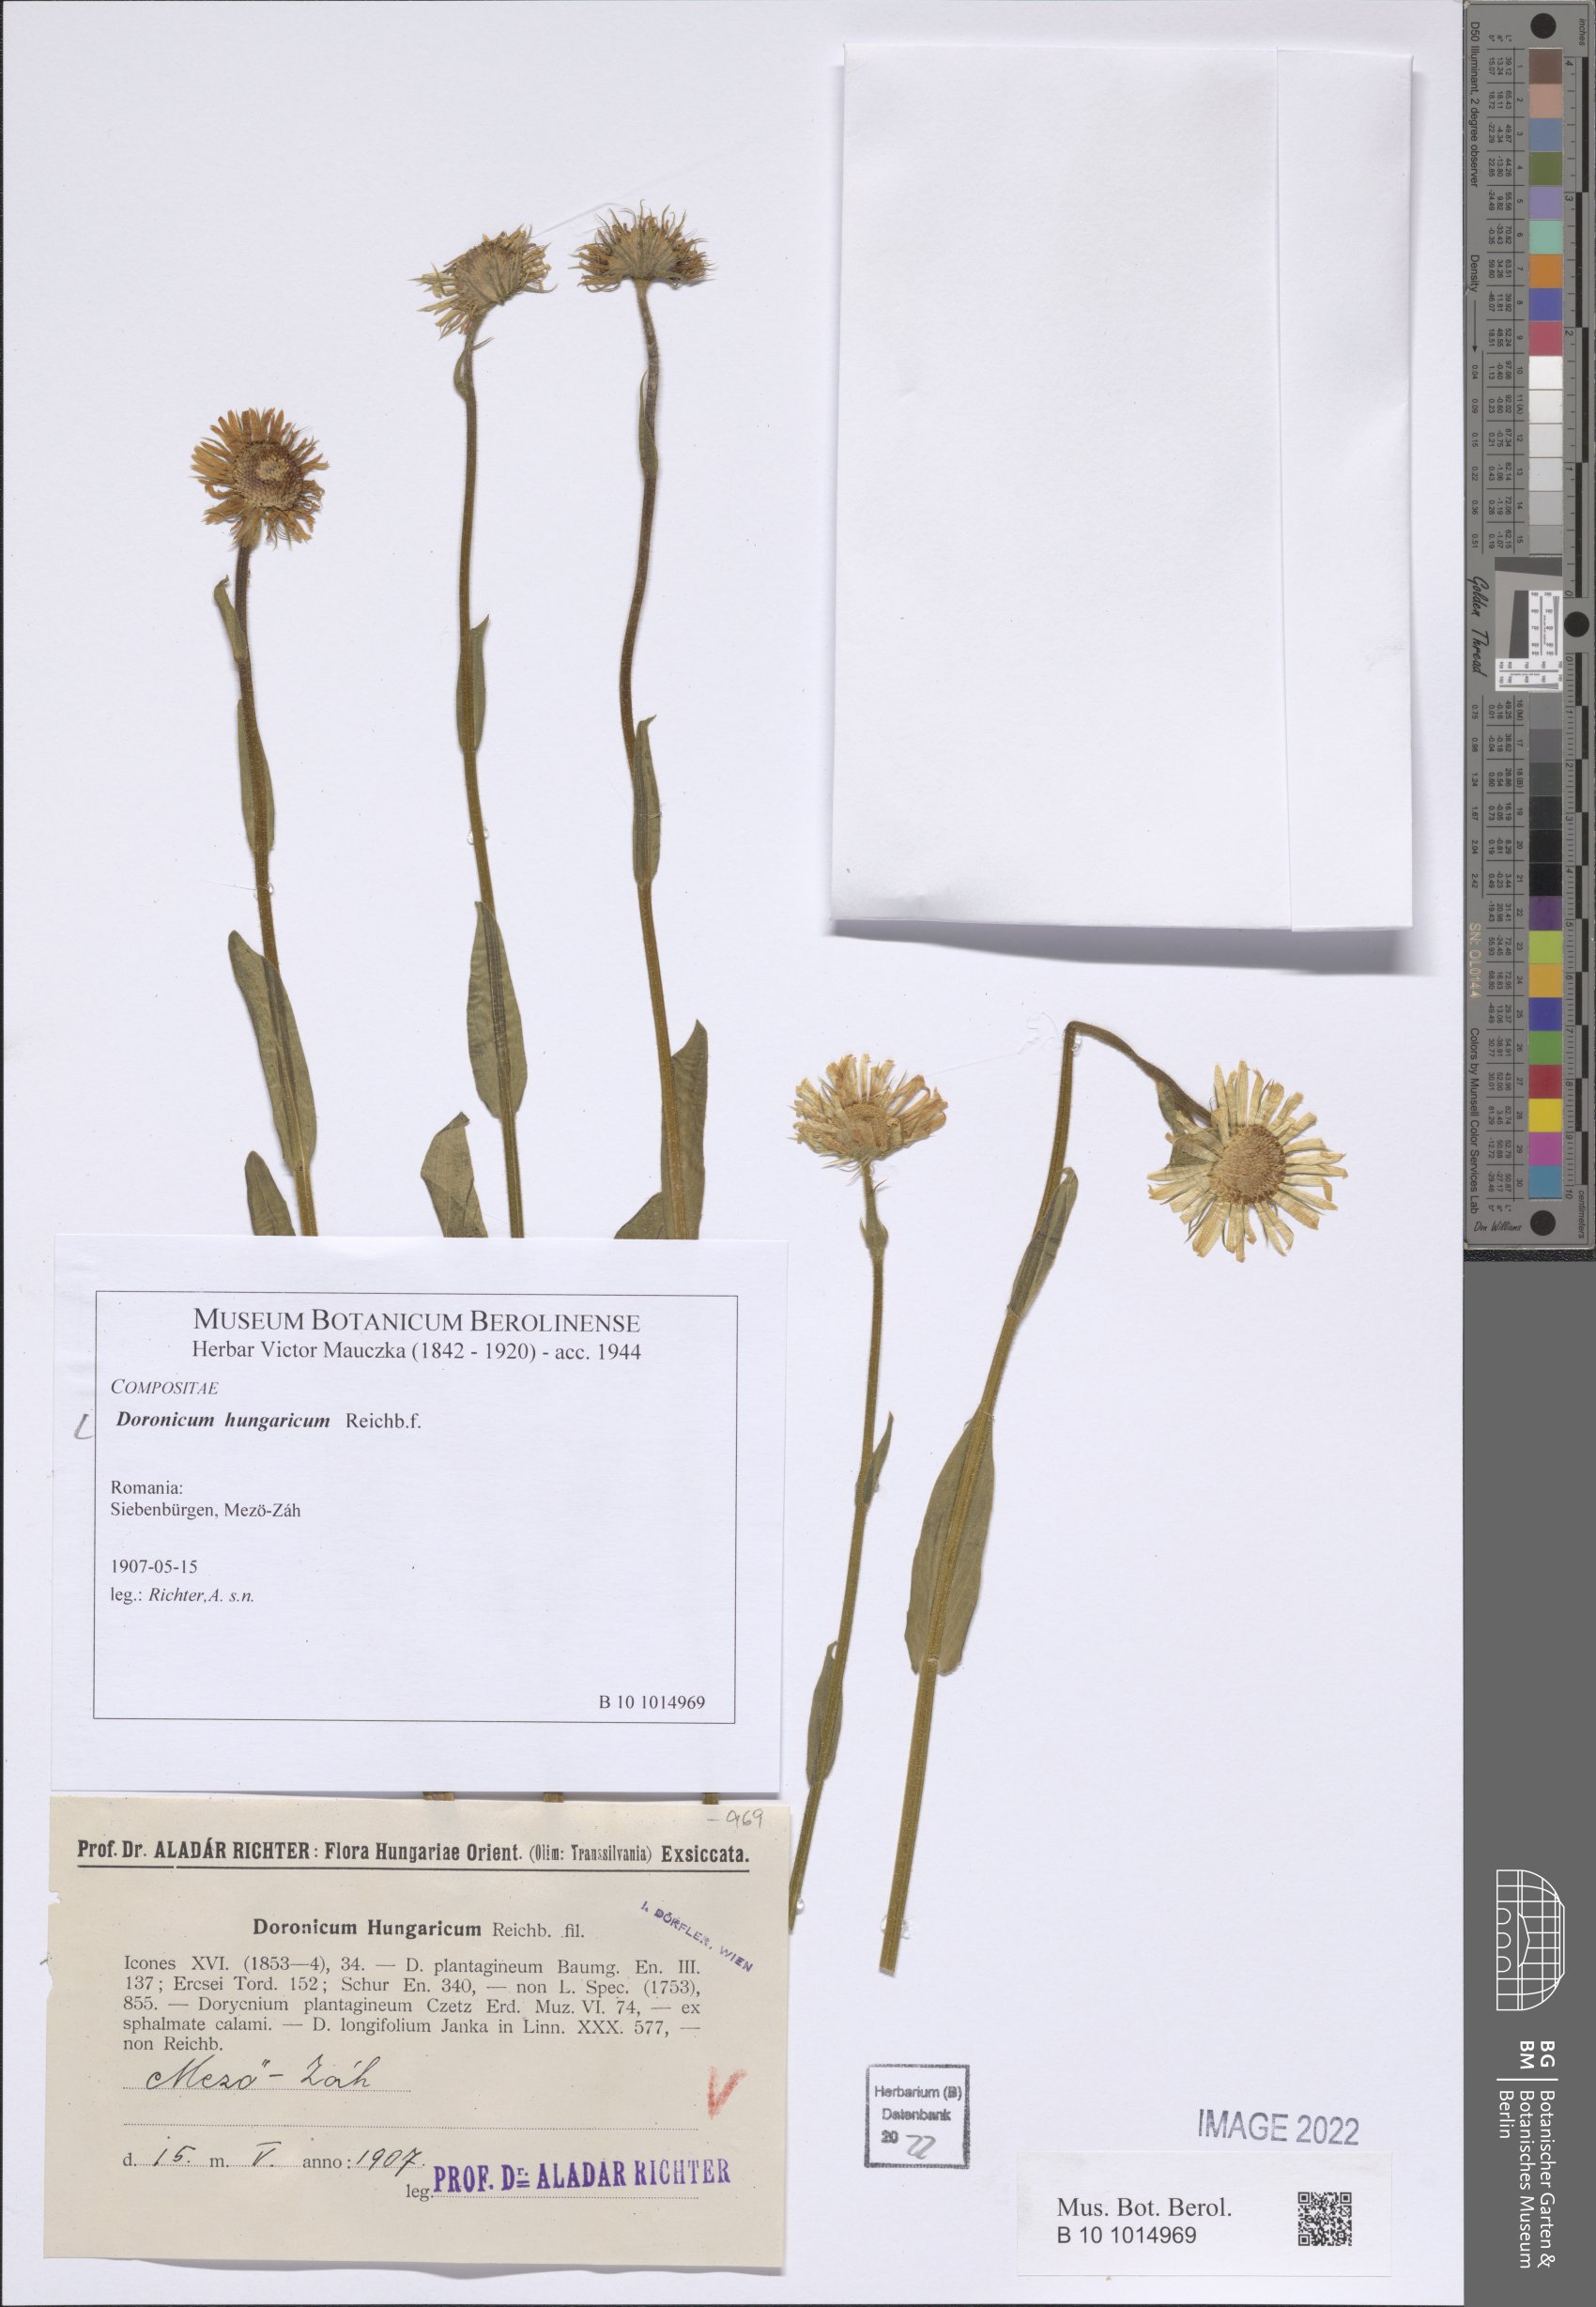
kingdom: Plantae
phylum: Tracheophyta
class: Magnoliopsida
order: Asterales
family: Asteraceae
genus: Doronicum
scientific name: Doronicum hungaricum
